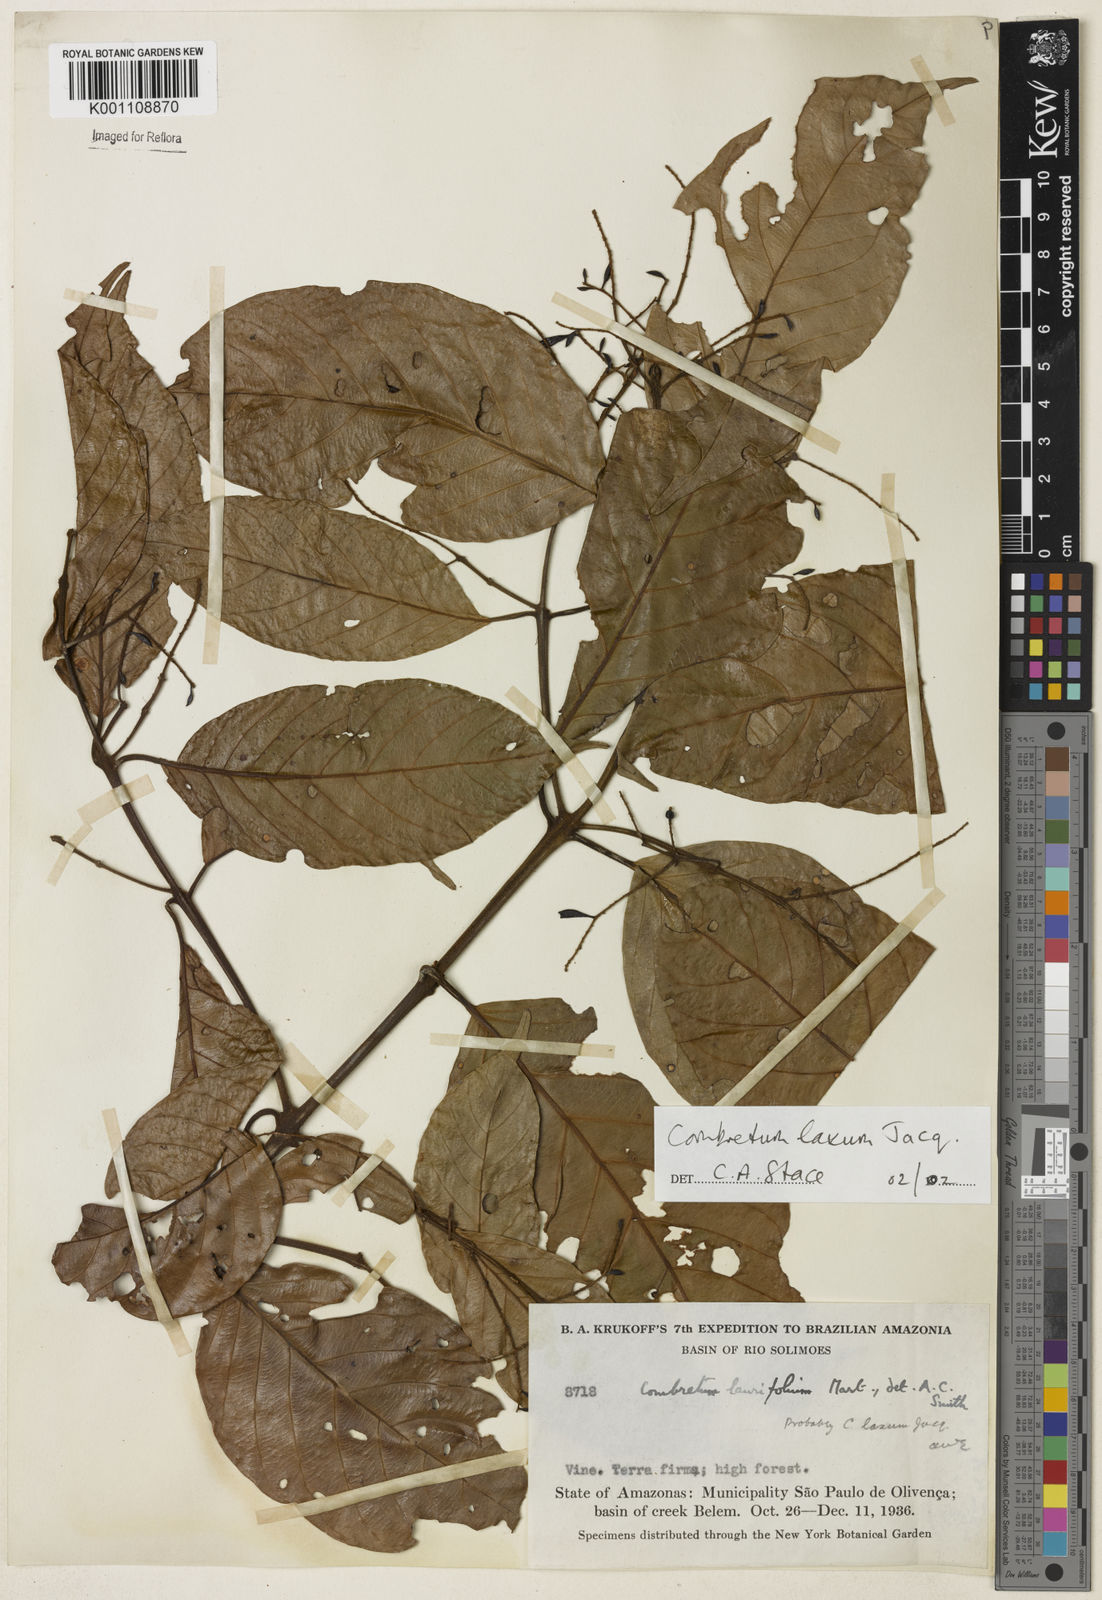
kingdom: Plantae
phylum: Tracheophyta
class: Magnoliopsida
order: Myrtales
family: Combretaceae
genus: Combretum
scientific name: Combretum laxum
